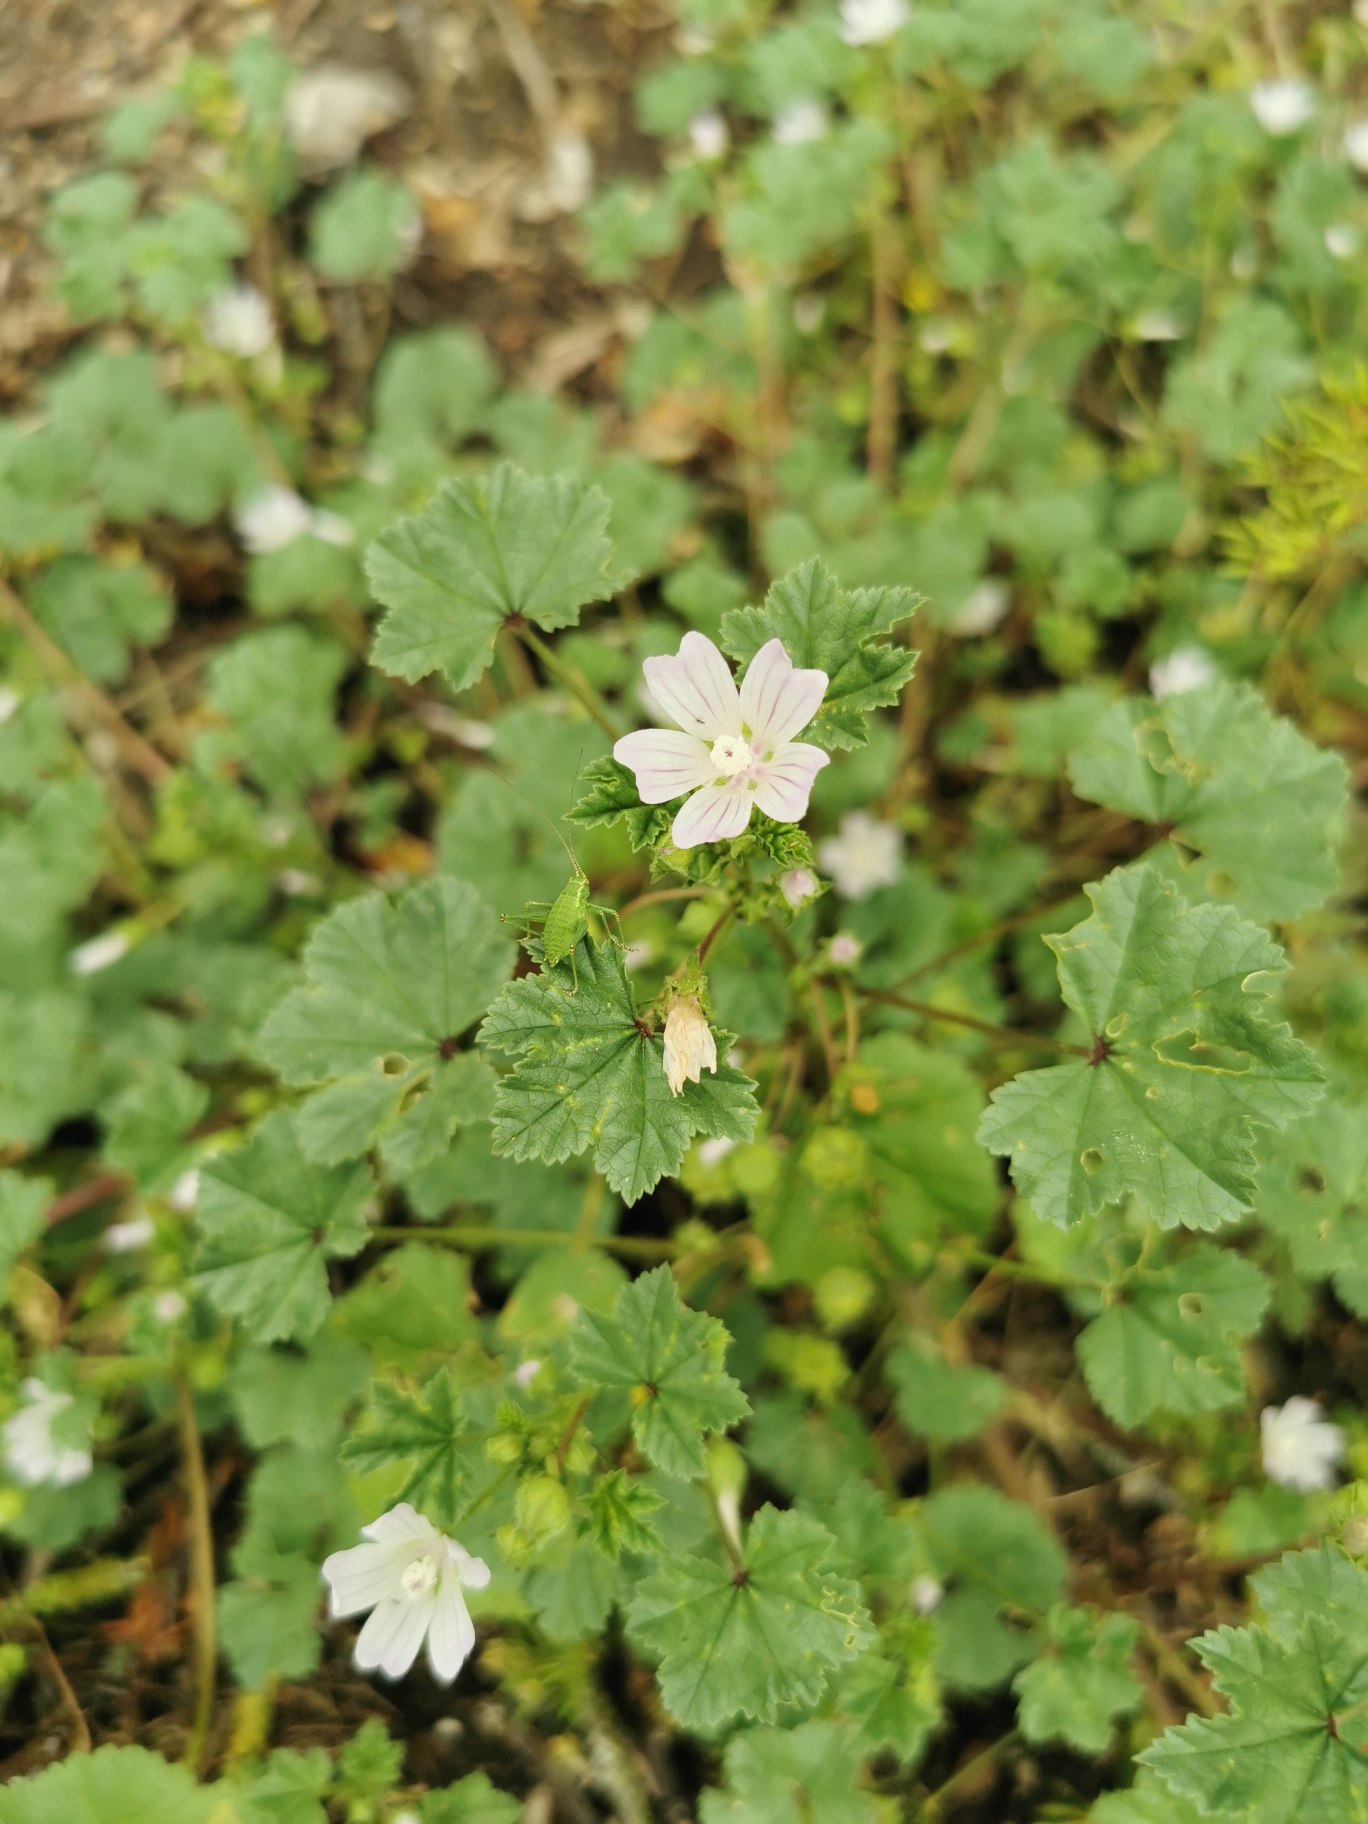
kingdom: Plantae
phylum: Tracheophyta
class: Magnoliopsida
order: Malvales
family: Malvaceae
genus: Malva
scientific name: Malva neglecta
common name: Rundbladet katost
